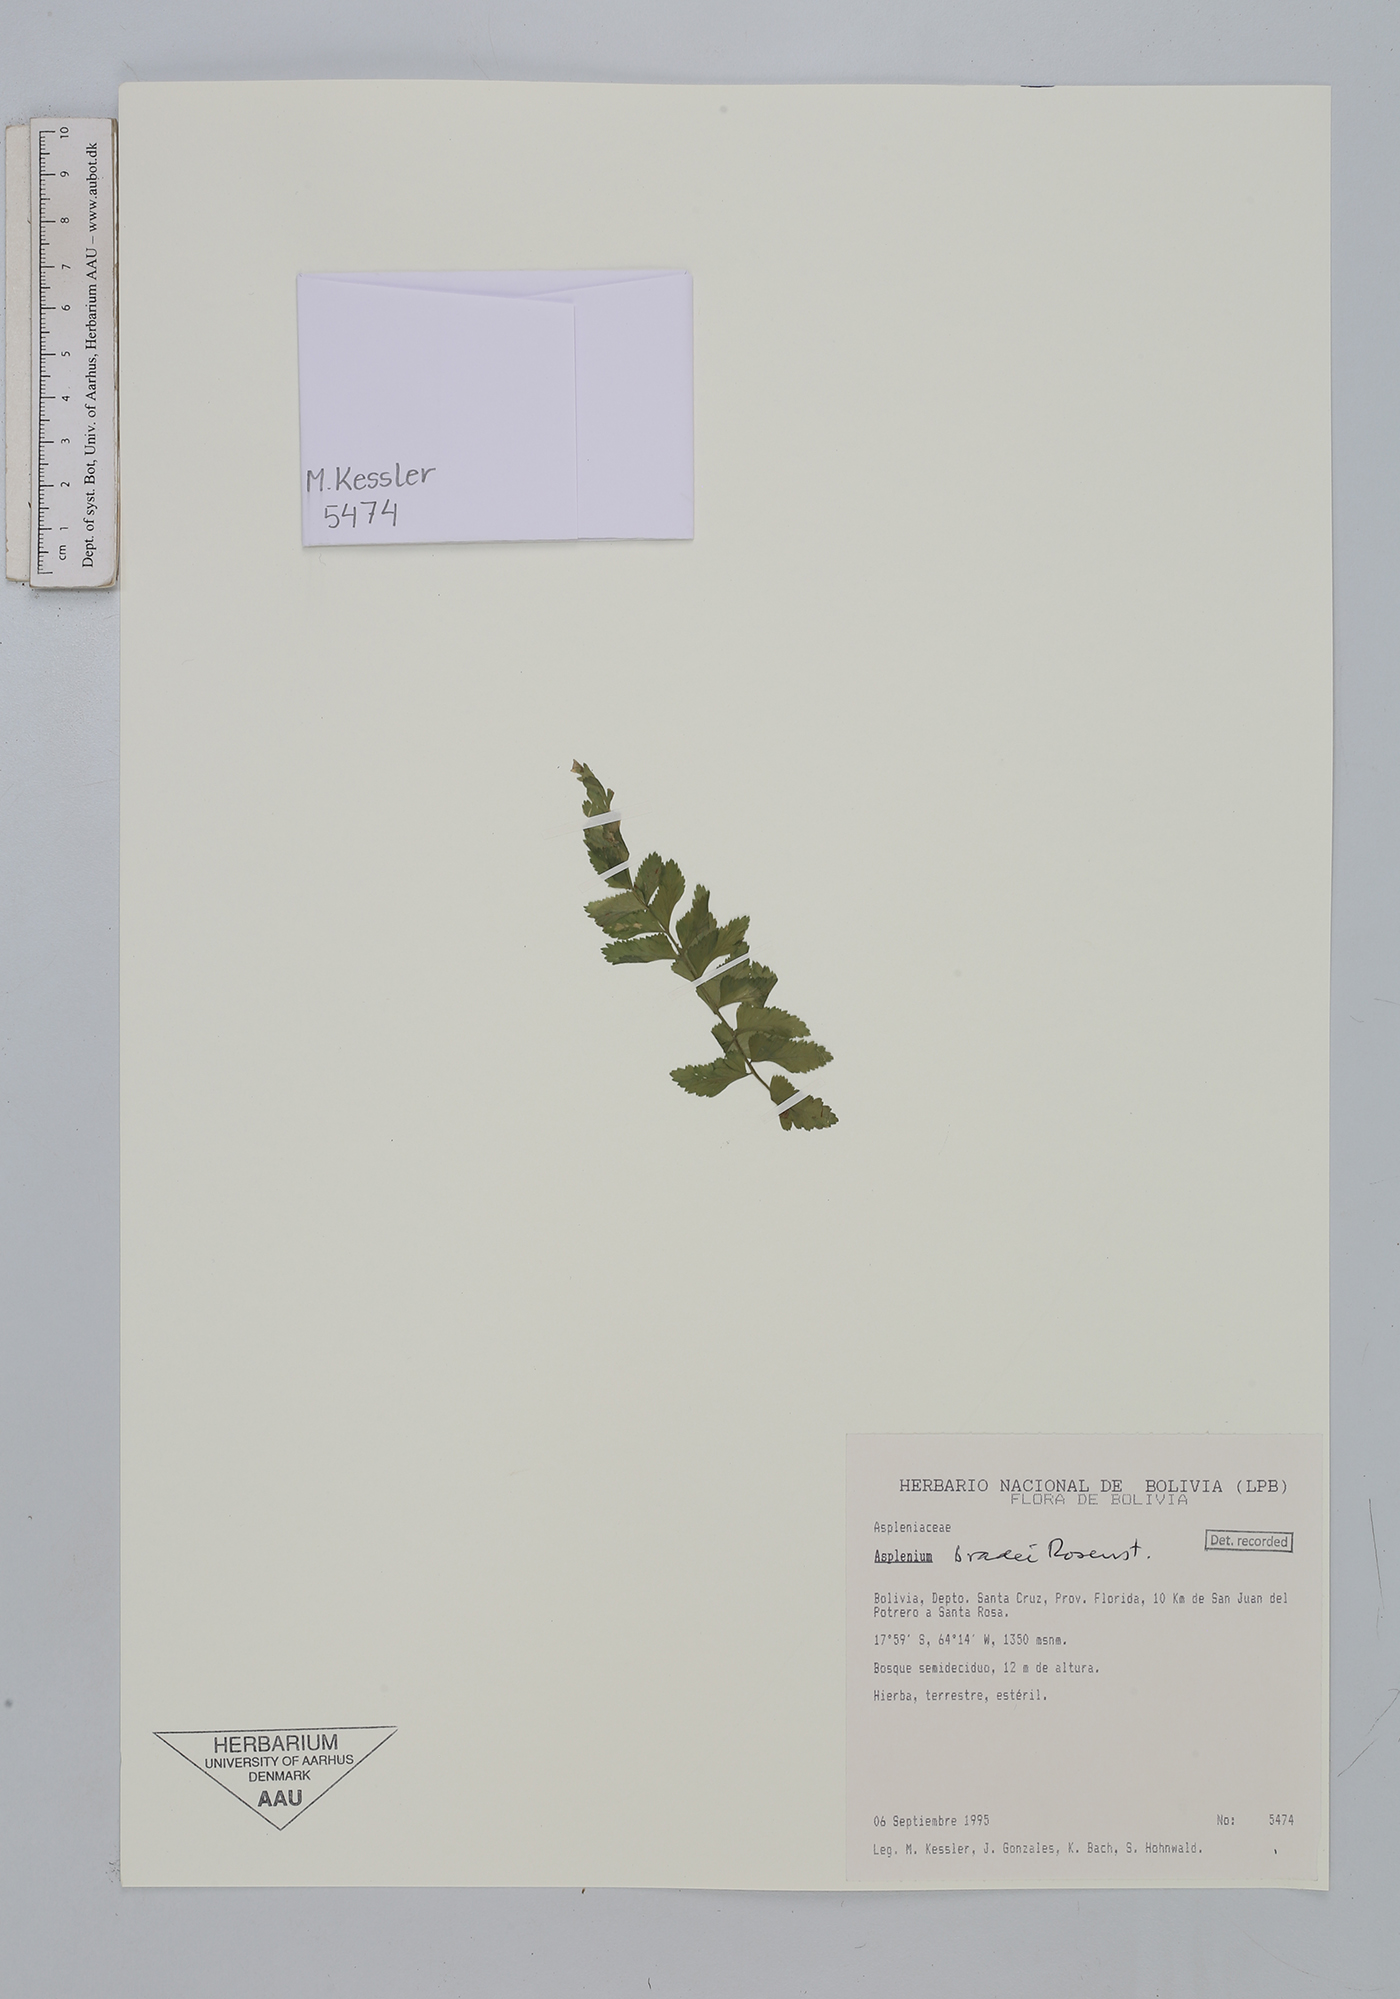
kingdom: Plantae
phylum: Tracheophyta
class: Polypodiopsida
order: Polypodiales
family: Aspleniaceae
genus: Asplenium
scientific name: Asplenium bradei
